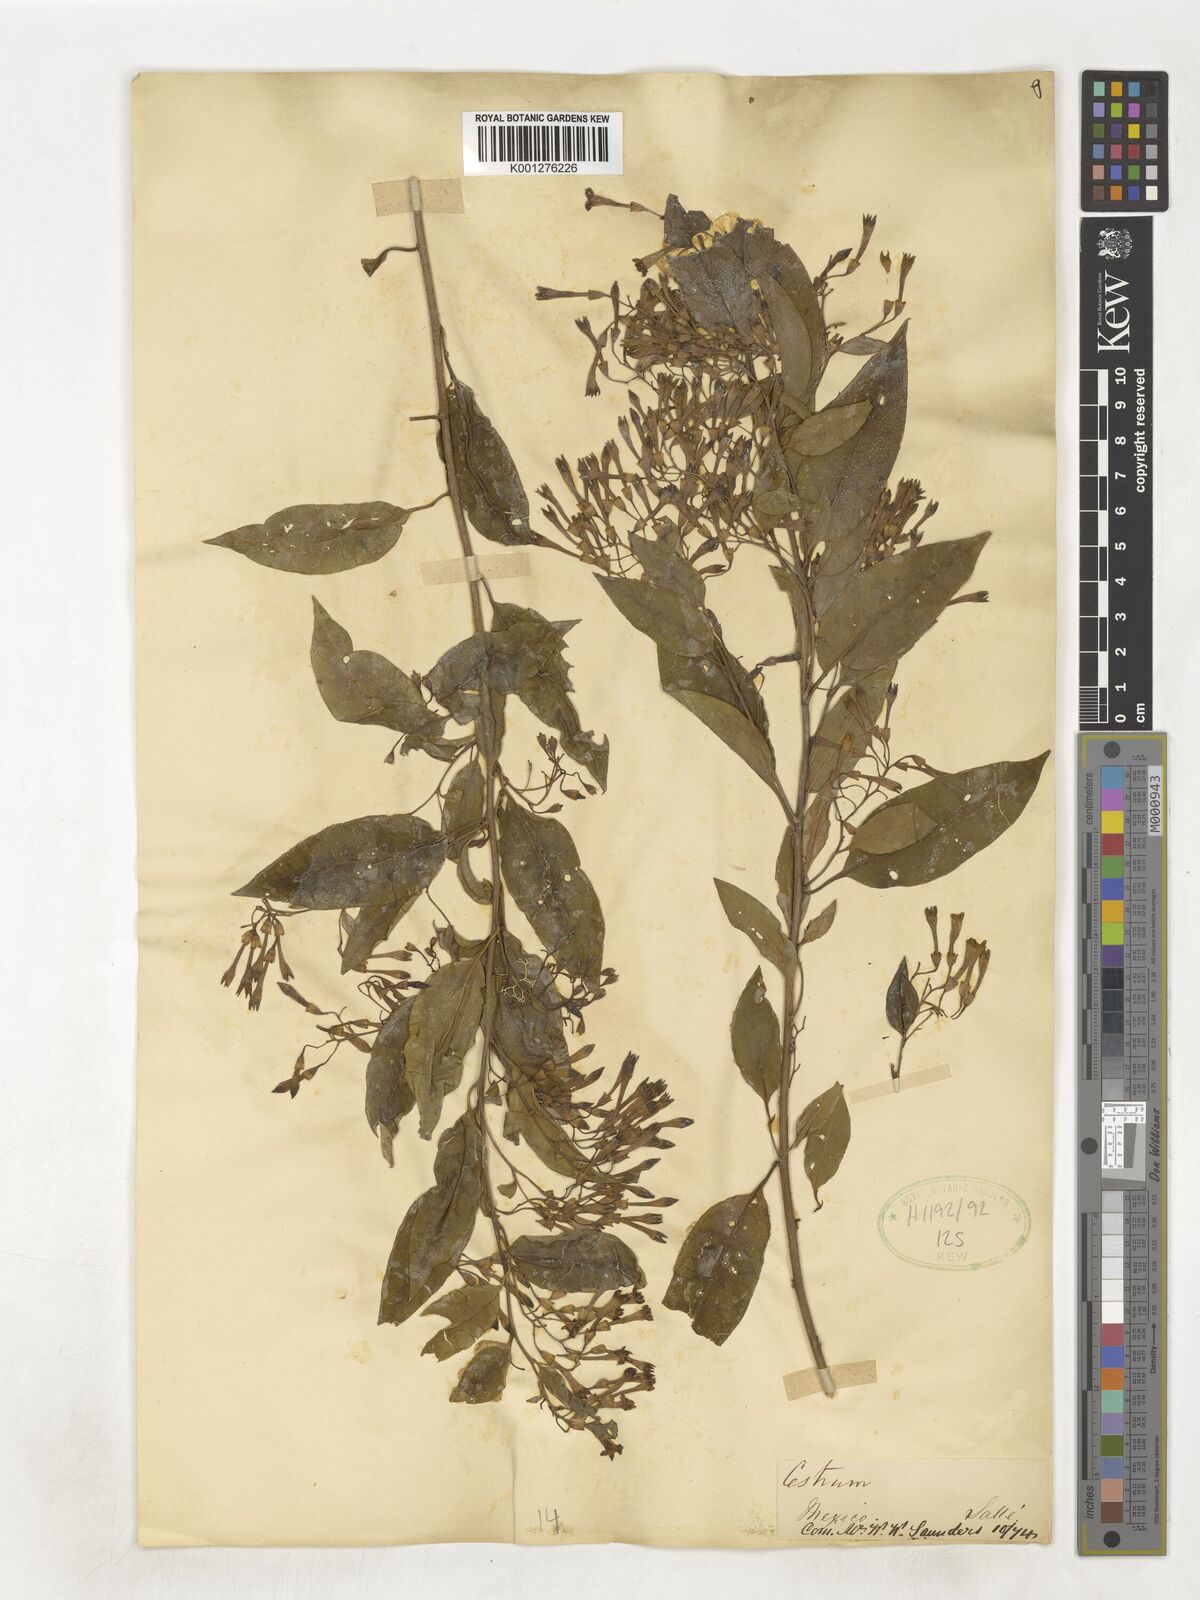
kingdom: Plantae
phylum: Tracheophyta
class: Magnoliopsida
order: Solanales
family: Solanaceae
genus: Cestrum
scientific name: Cestrum
